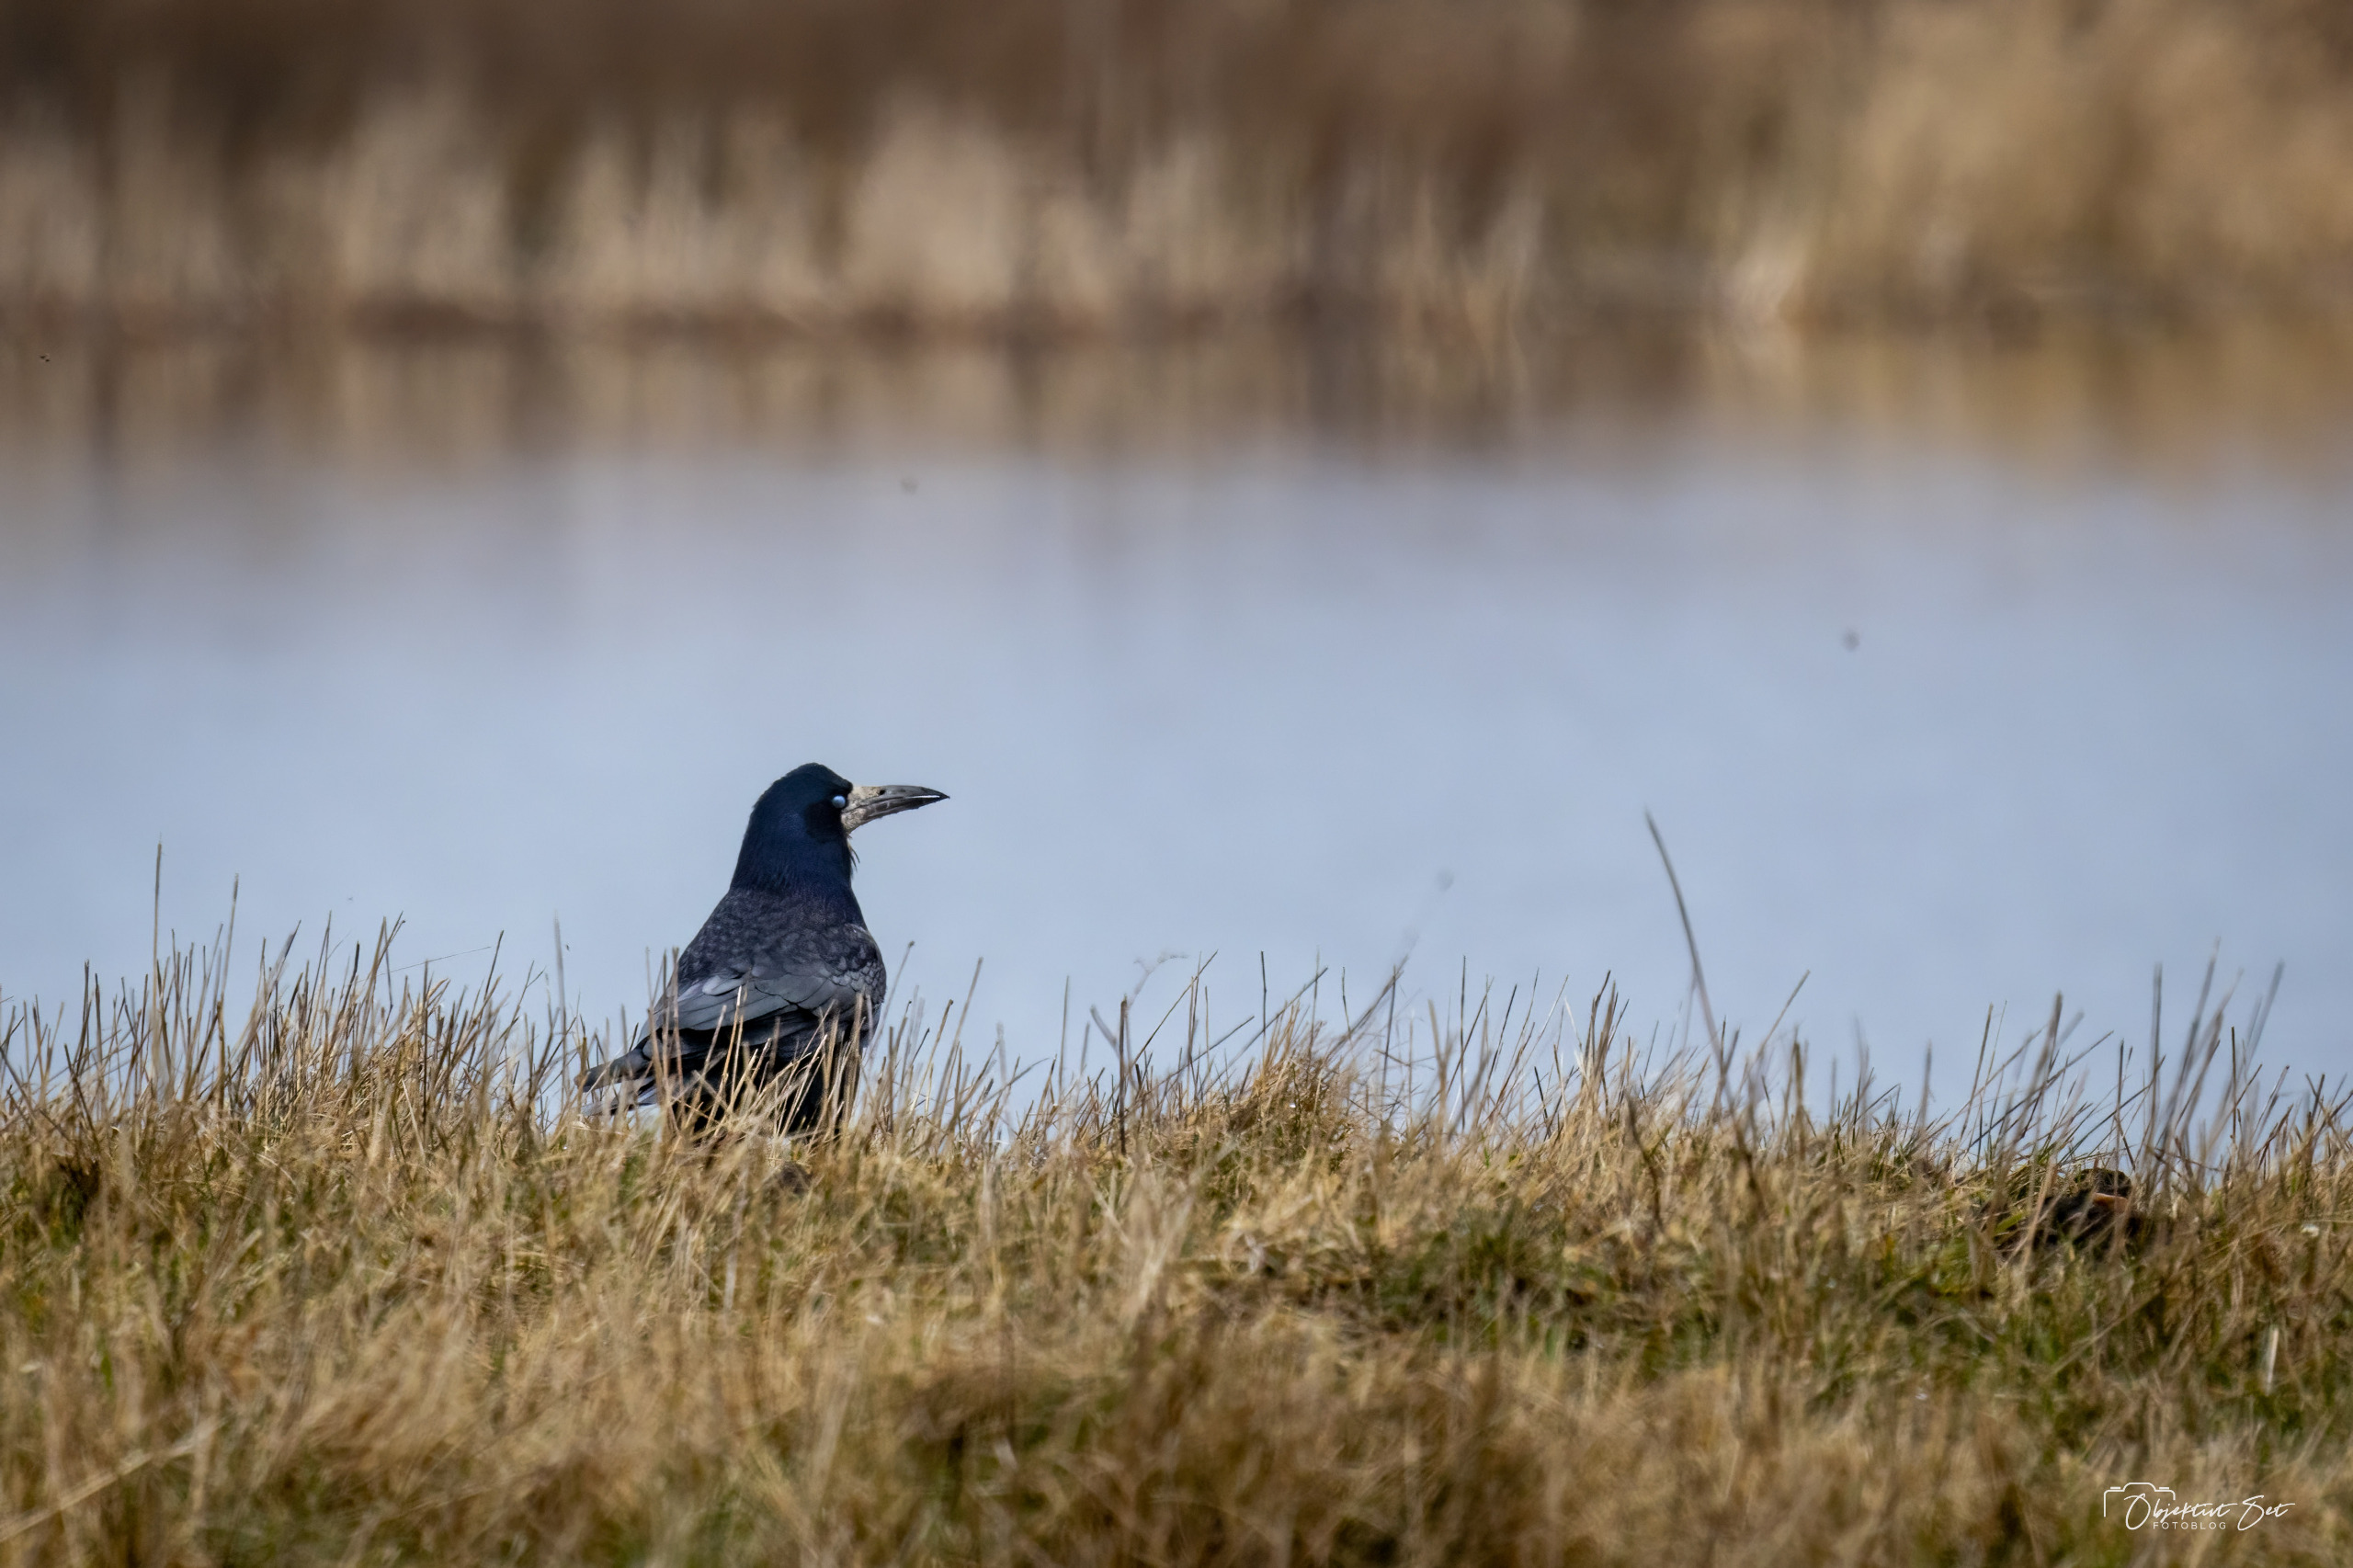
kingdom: Animalia
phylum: Chordata
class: Aves
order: Passeriformes
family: Corvidae
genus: Corvus
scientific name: Corvus frugilegus
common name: Råge
